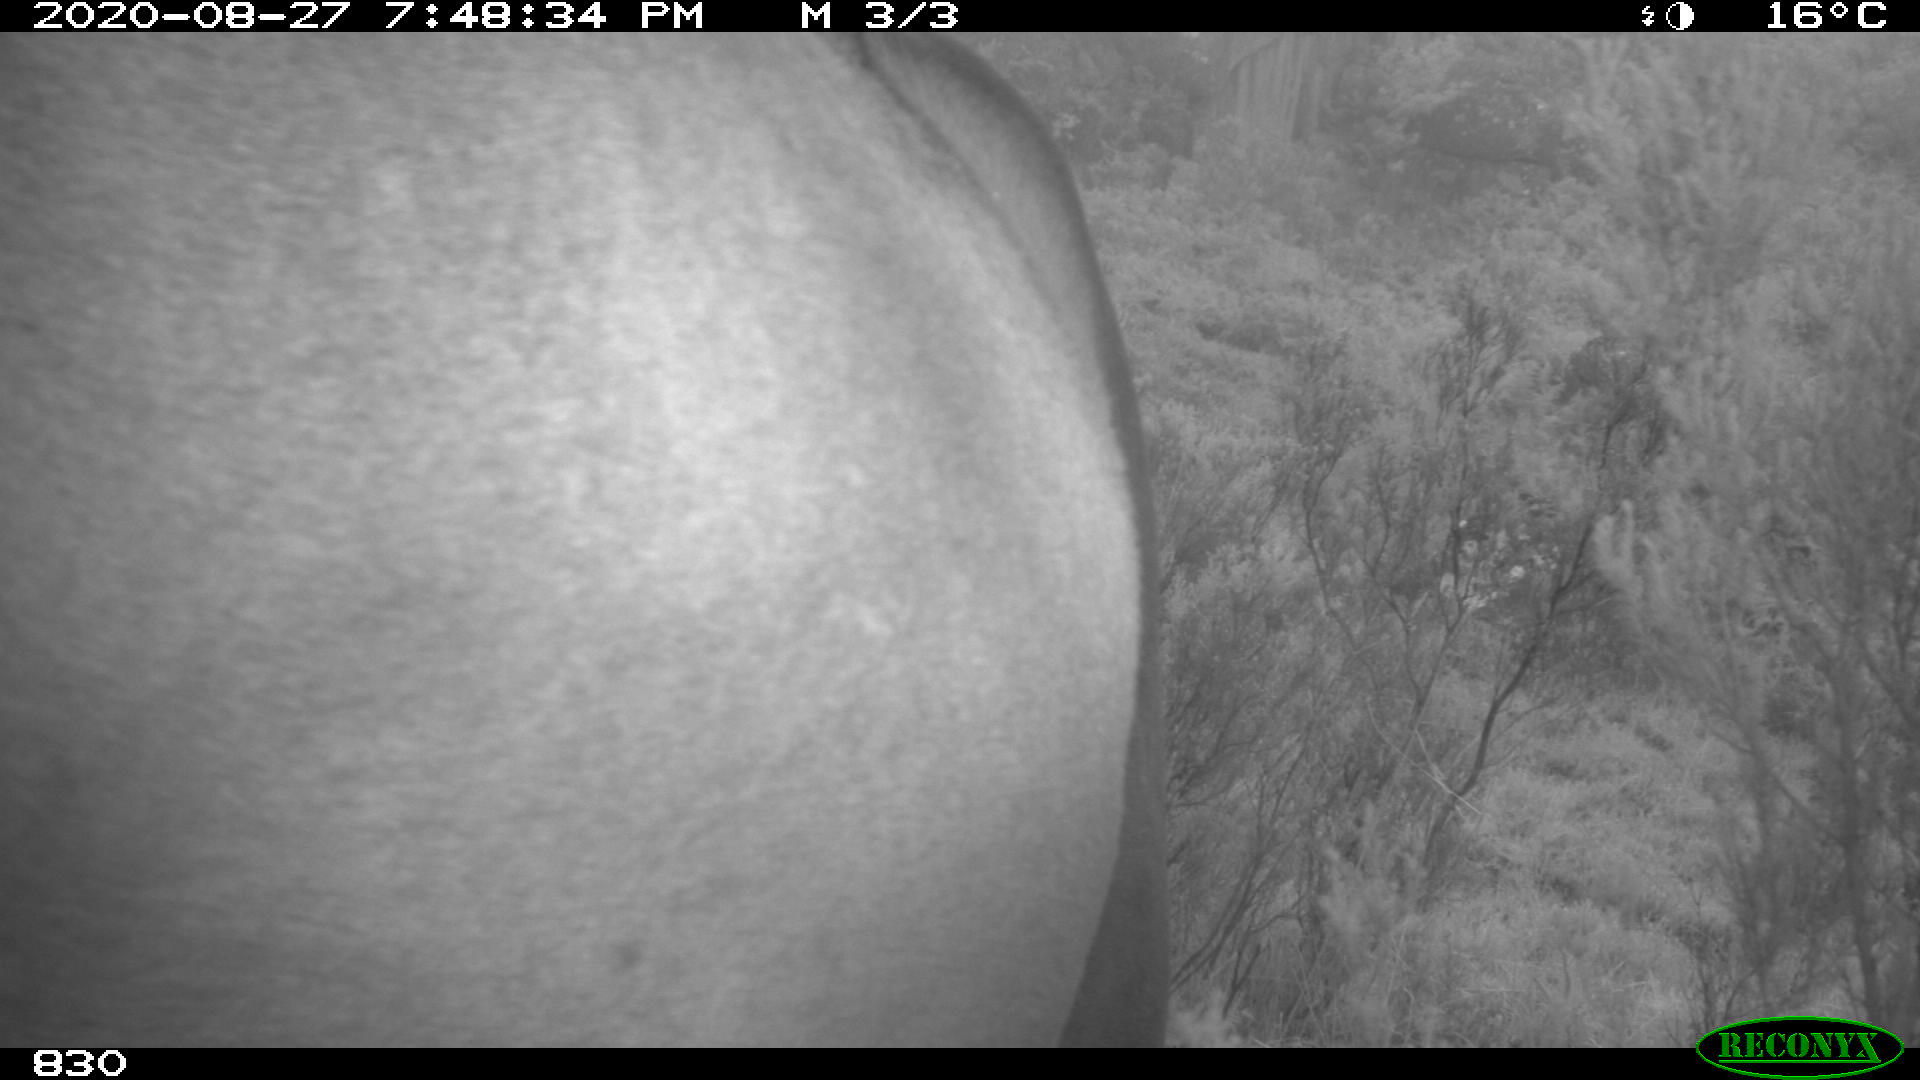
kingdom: Animalia
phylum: Chordata
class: Mammalia
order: Perissodactyla
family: Equidae
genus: Equus
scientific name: Equus caballus
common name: Horse
